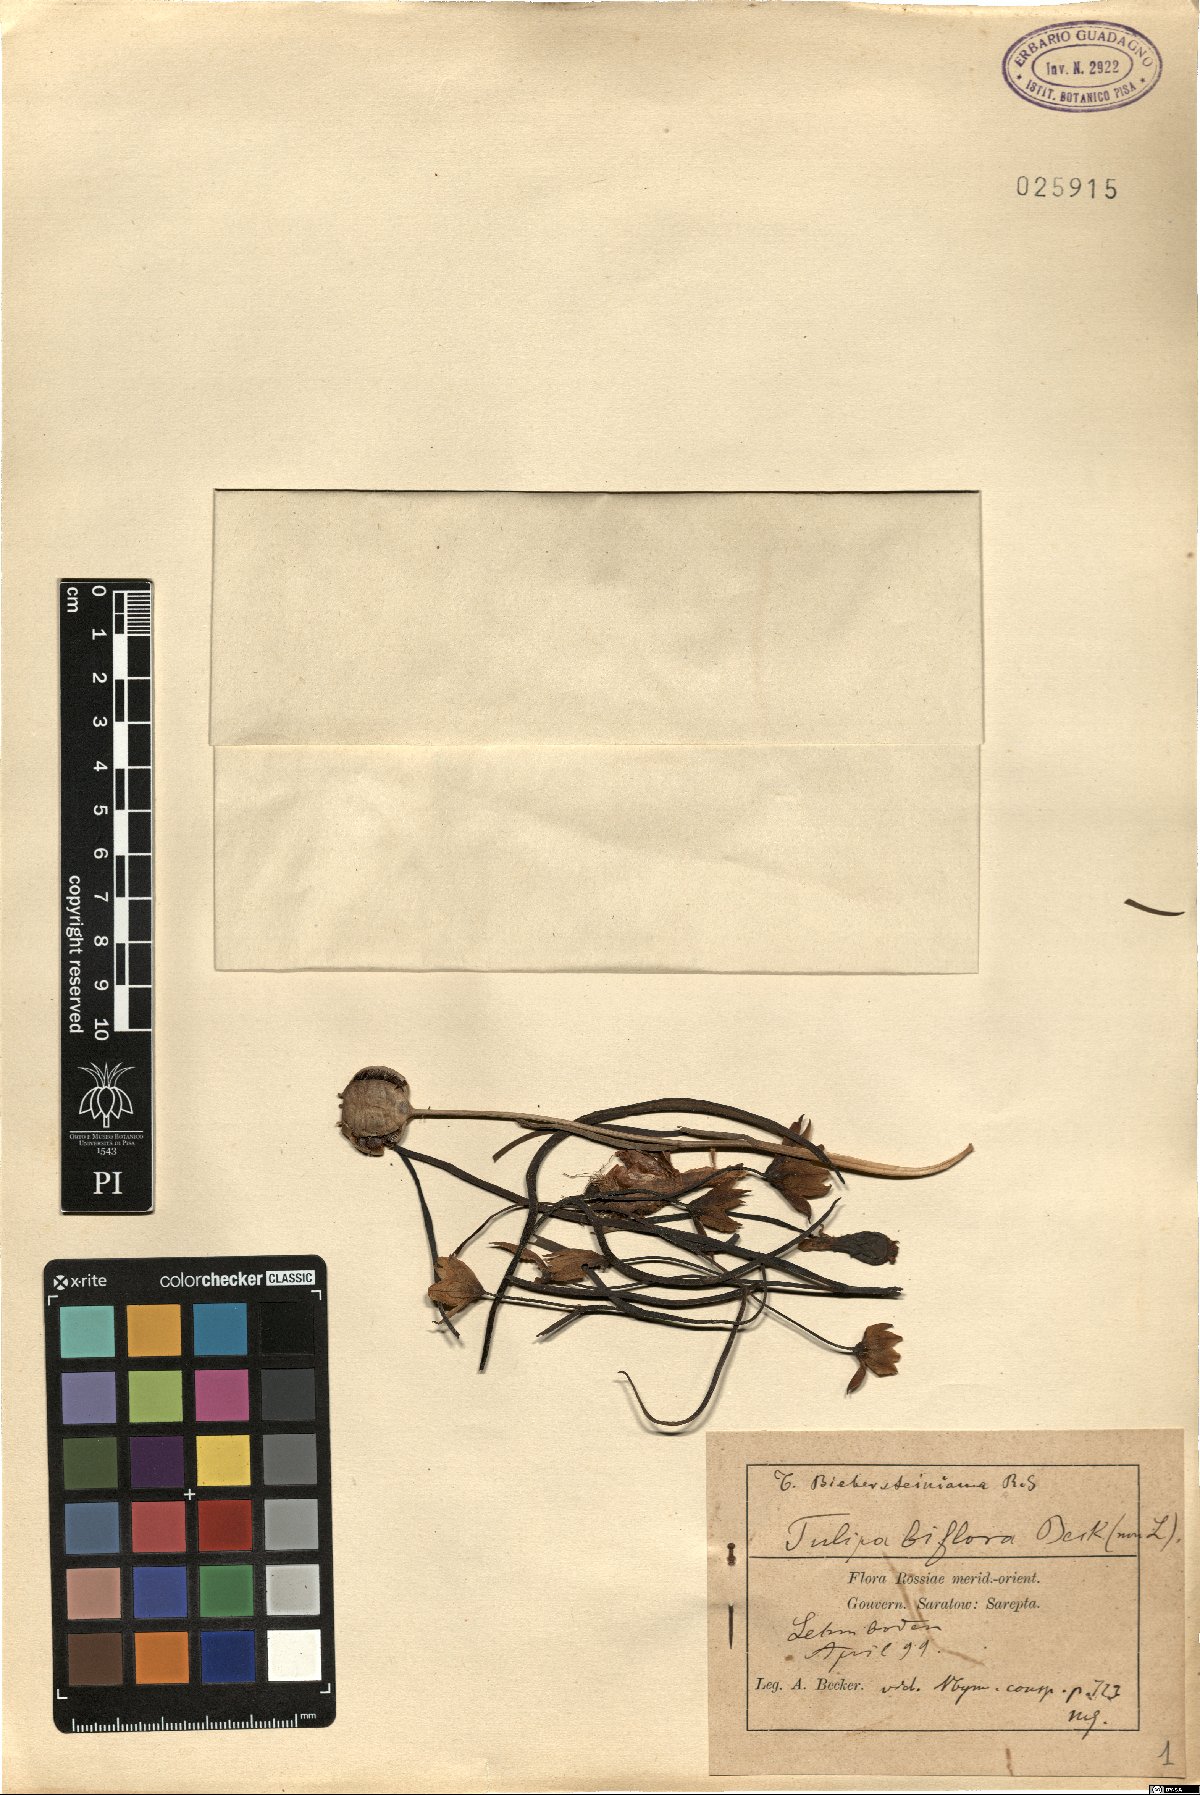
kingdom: Plantae
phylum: Tracheophyta
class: Liliopsida
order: Liliales
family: Liliaceae
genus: Tulipa
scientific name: Tulipa biflora
